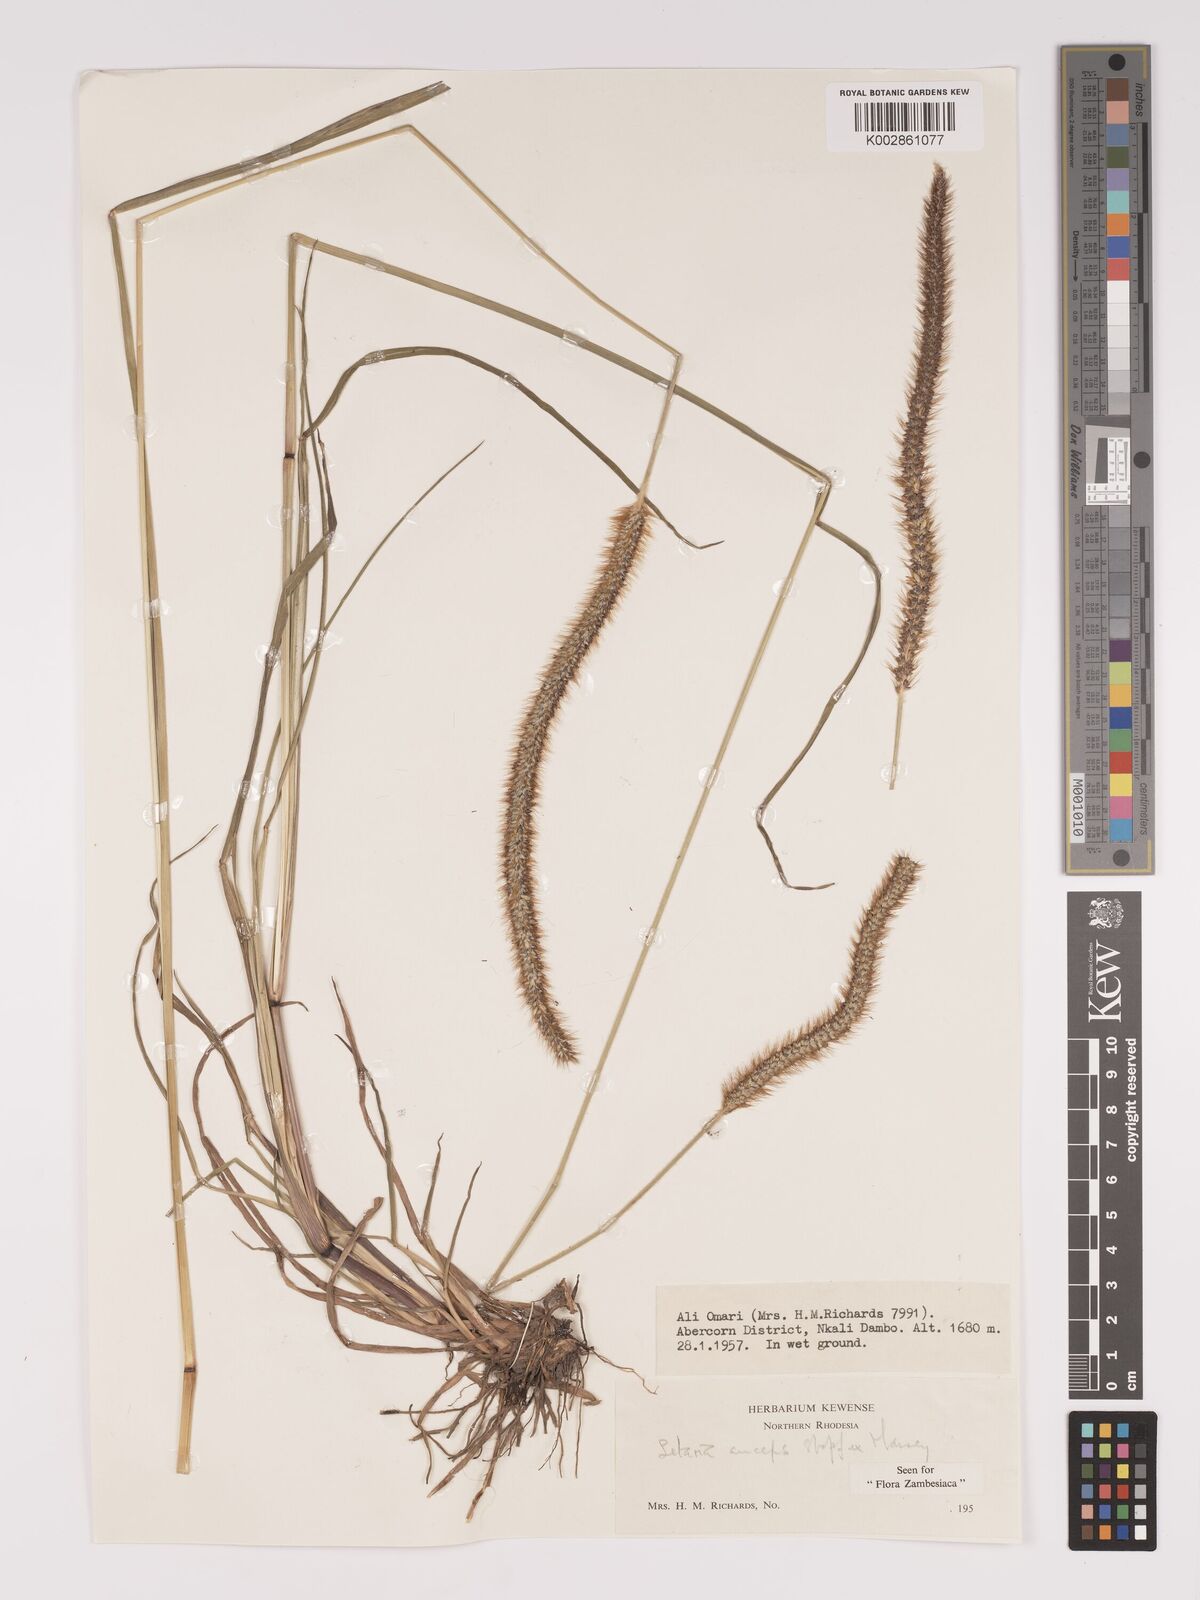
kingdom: Plantae
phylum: Tracheophyta
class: Liliopsida
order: Poales
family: Poaceae
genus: Setaria
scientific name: Setaria sphacelata
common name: African bristlegrass
